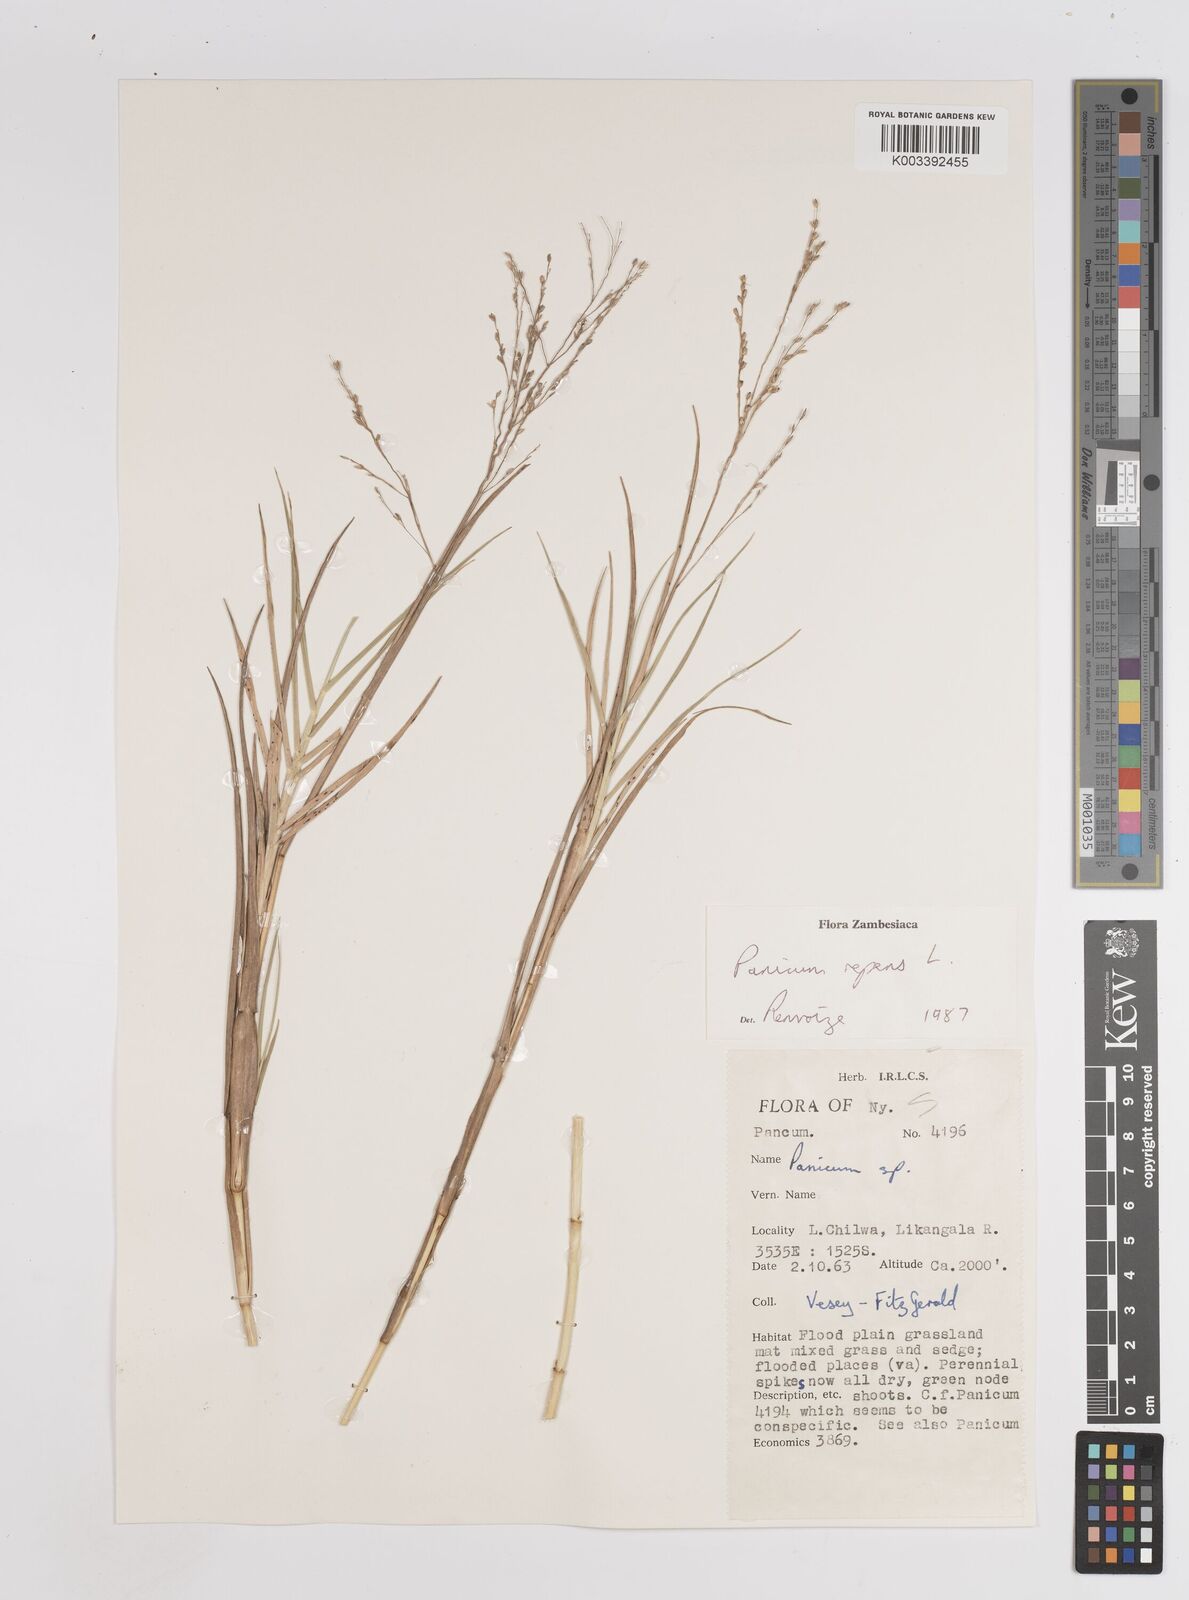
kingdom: Plantae
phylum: Tracheophyta
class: Liliopsida
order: Poales
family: Poaceae
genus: Panicum
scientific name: Panicum repens
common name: Torpedo grass
